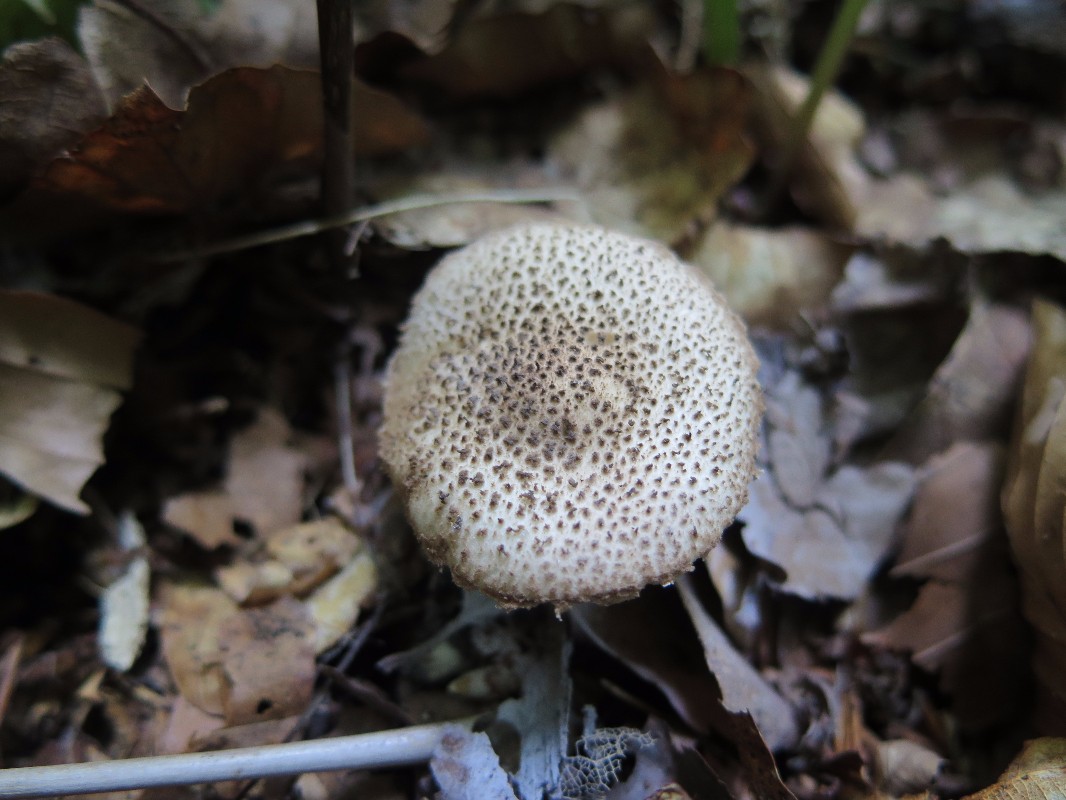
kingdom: Fungi
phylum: Basidiomycota
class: Agaricomycetes
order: Agaricales
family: Agaricaceae
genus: Echinoderma
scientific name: Echinoderma jacobi
